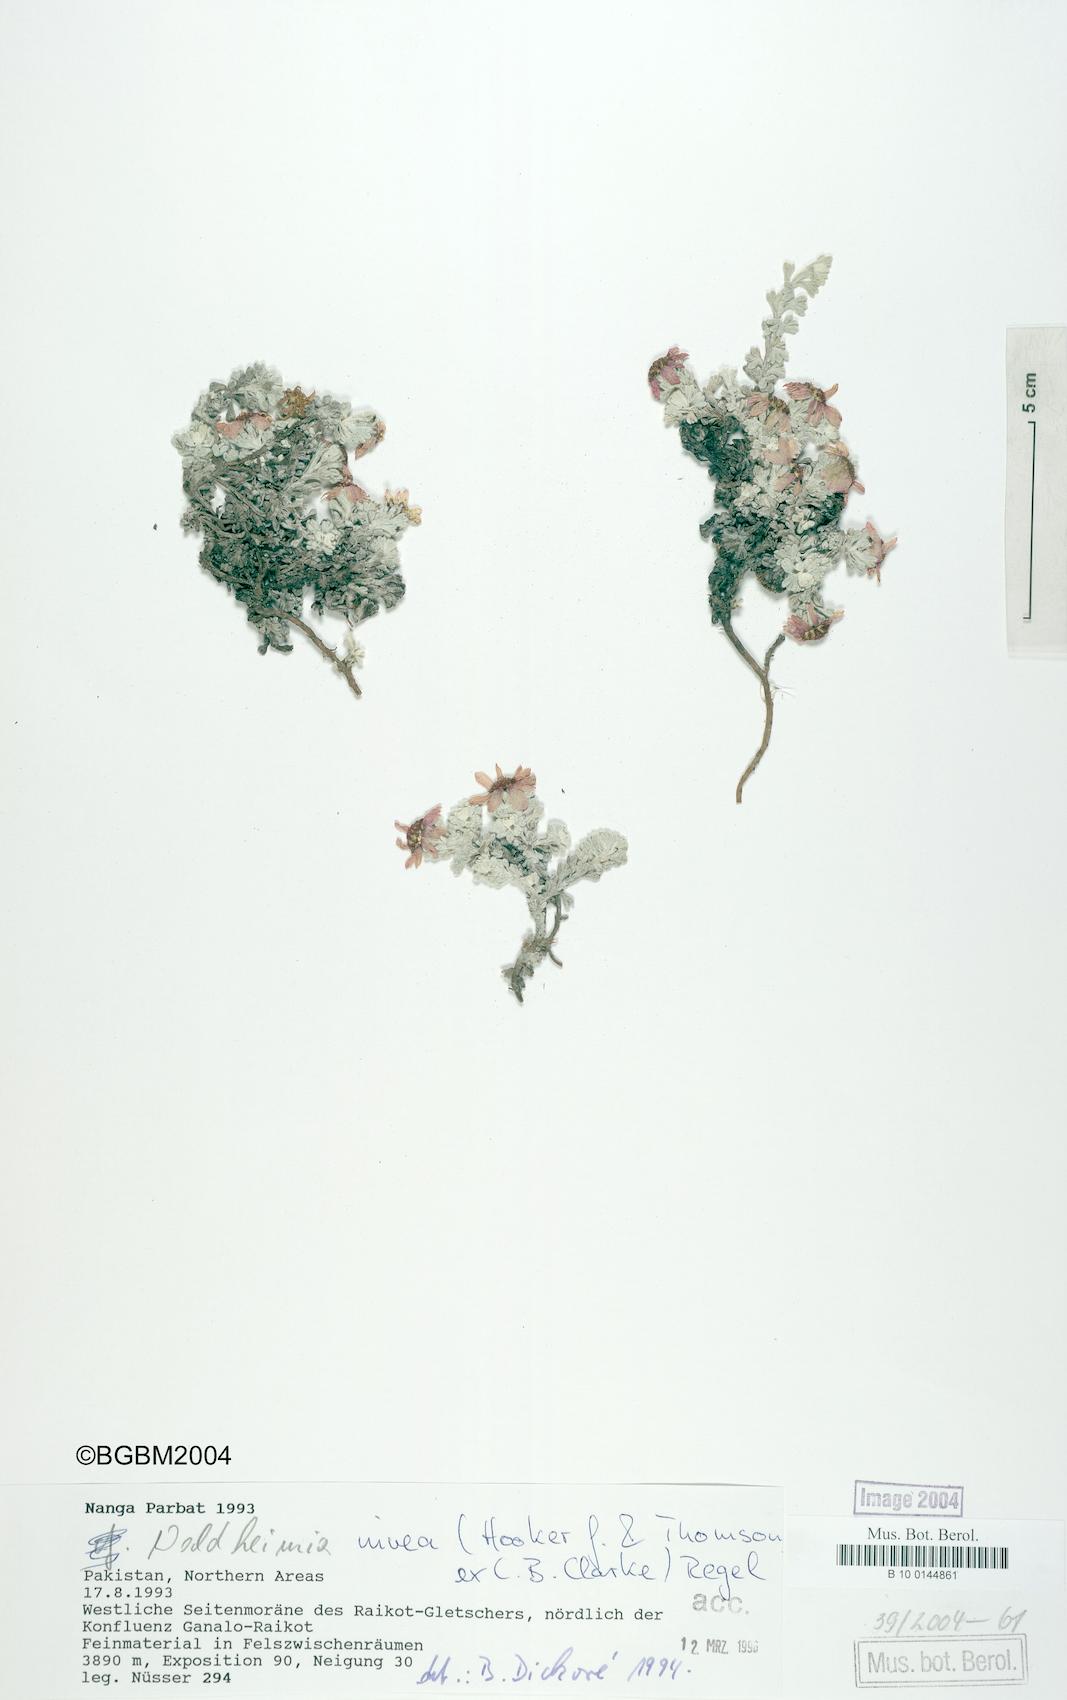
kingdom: Plantae
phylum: Tracheophyta
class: Magnoliopsida
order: Asterales
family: Asteraceae
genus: Allardia
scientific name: Allardia nivea
